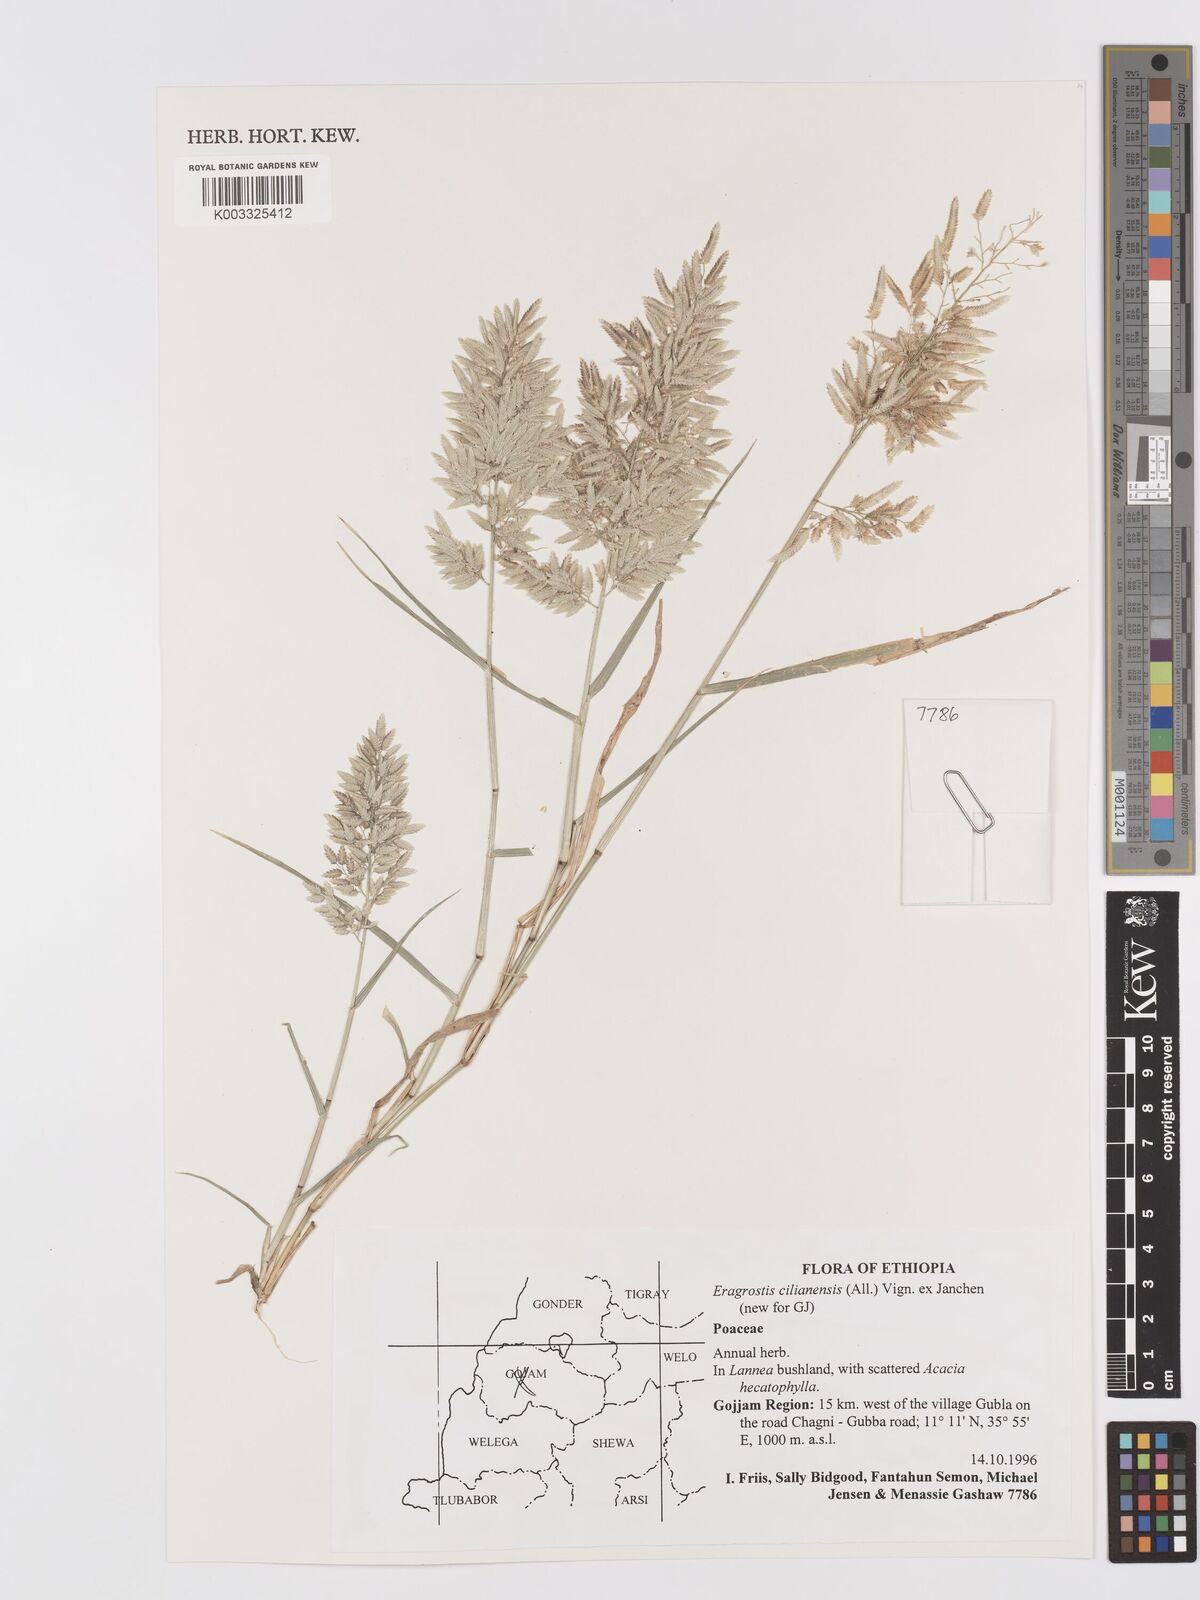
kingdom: Plantae
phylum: Tracheophyta
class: Liliopsida
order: Poales
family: Poaceae
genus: Eragrostis
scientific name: Eragrostis cilianensis
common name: Stinkgrass
